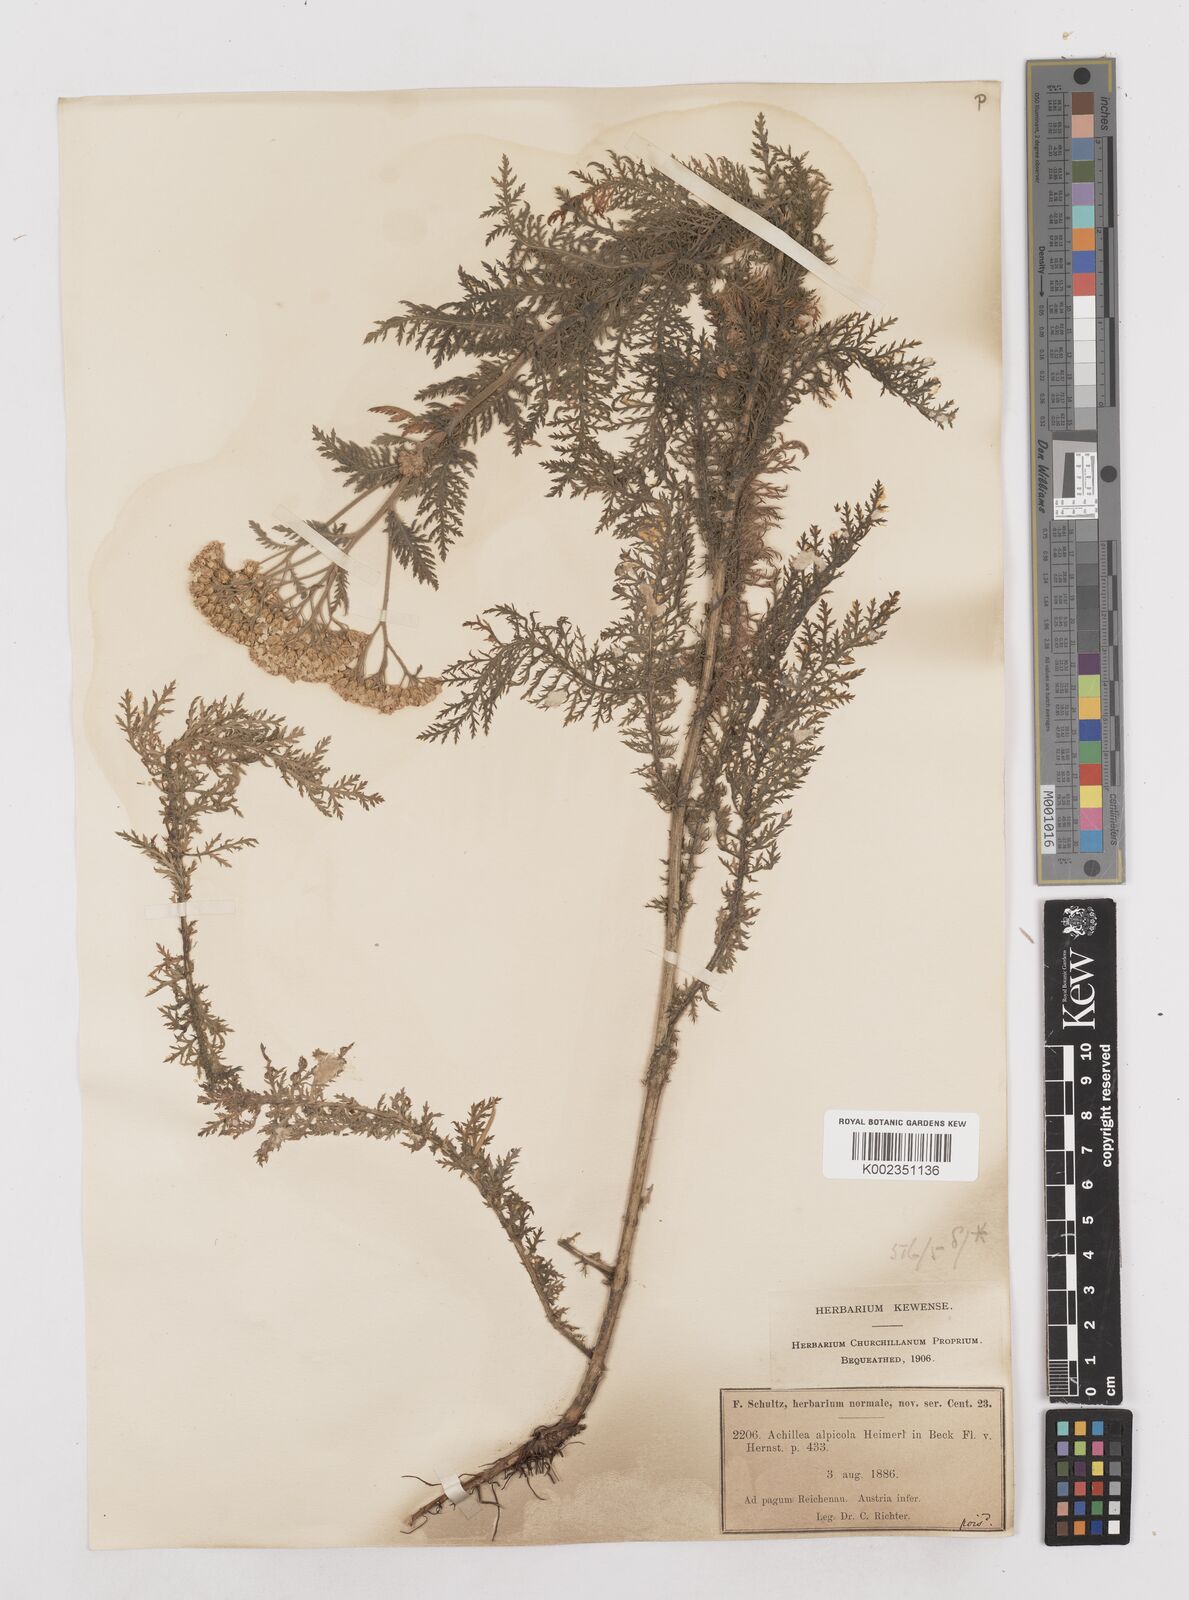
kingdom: Plantae
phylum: Tracheophyta
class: Magnoliopsida
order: Asterales
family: Asteraceae
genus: Achillea
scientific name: Achillea millefolium
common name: Yarrow
